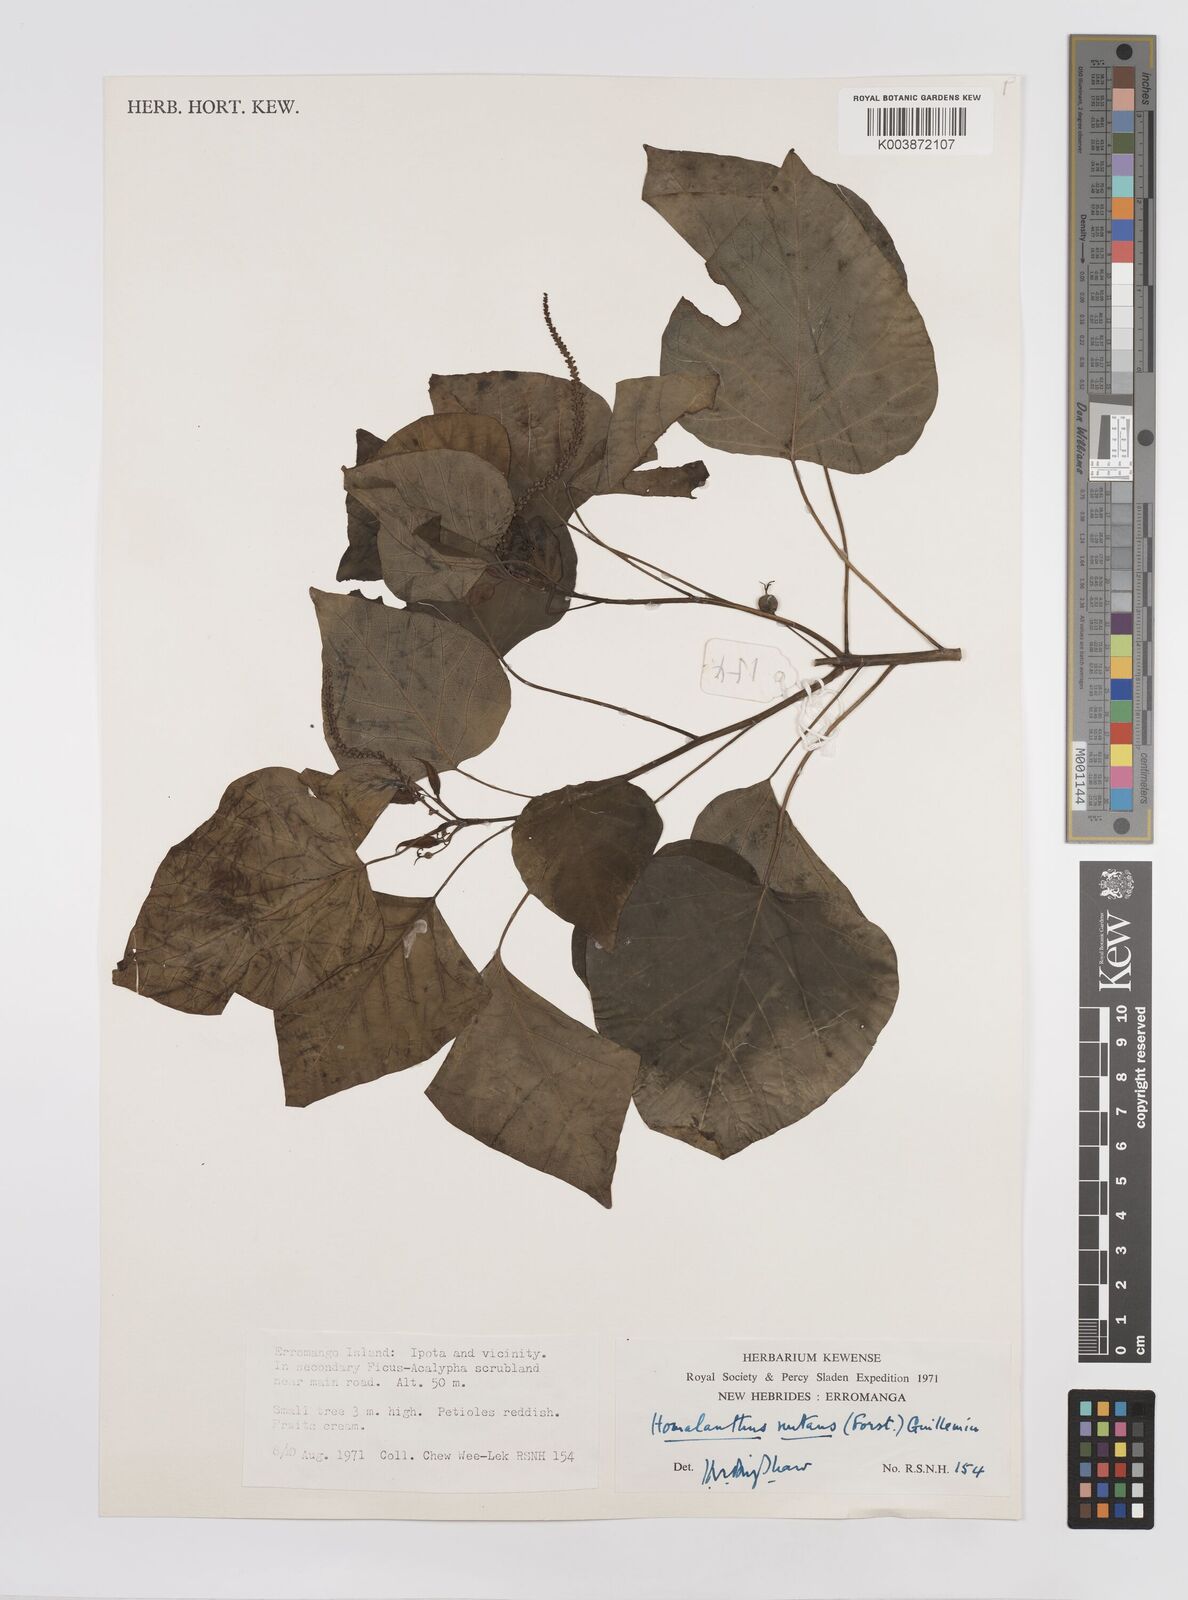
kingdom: Plantae
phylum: Tracheophyta
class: Magnoliopsida
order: Malpighiales
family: Euphorbiaceae
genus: Homalanthus
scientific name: Homalanthus nutans
